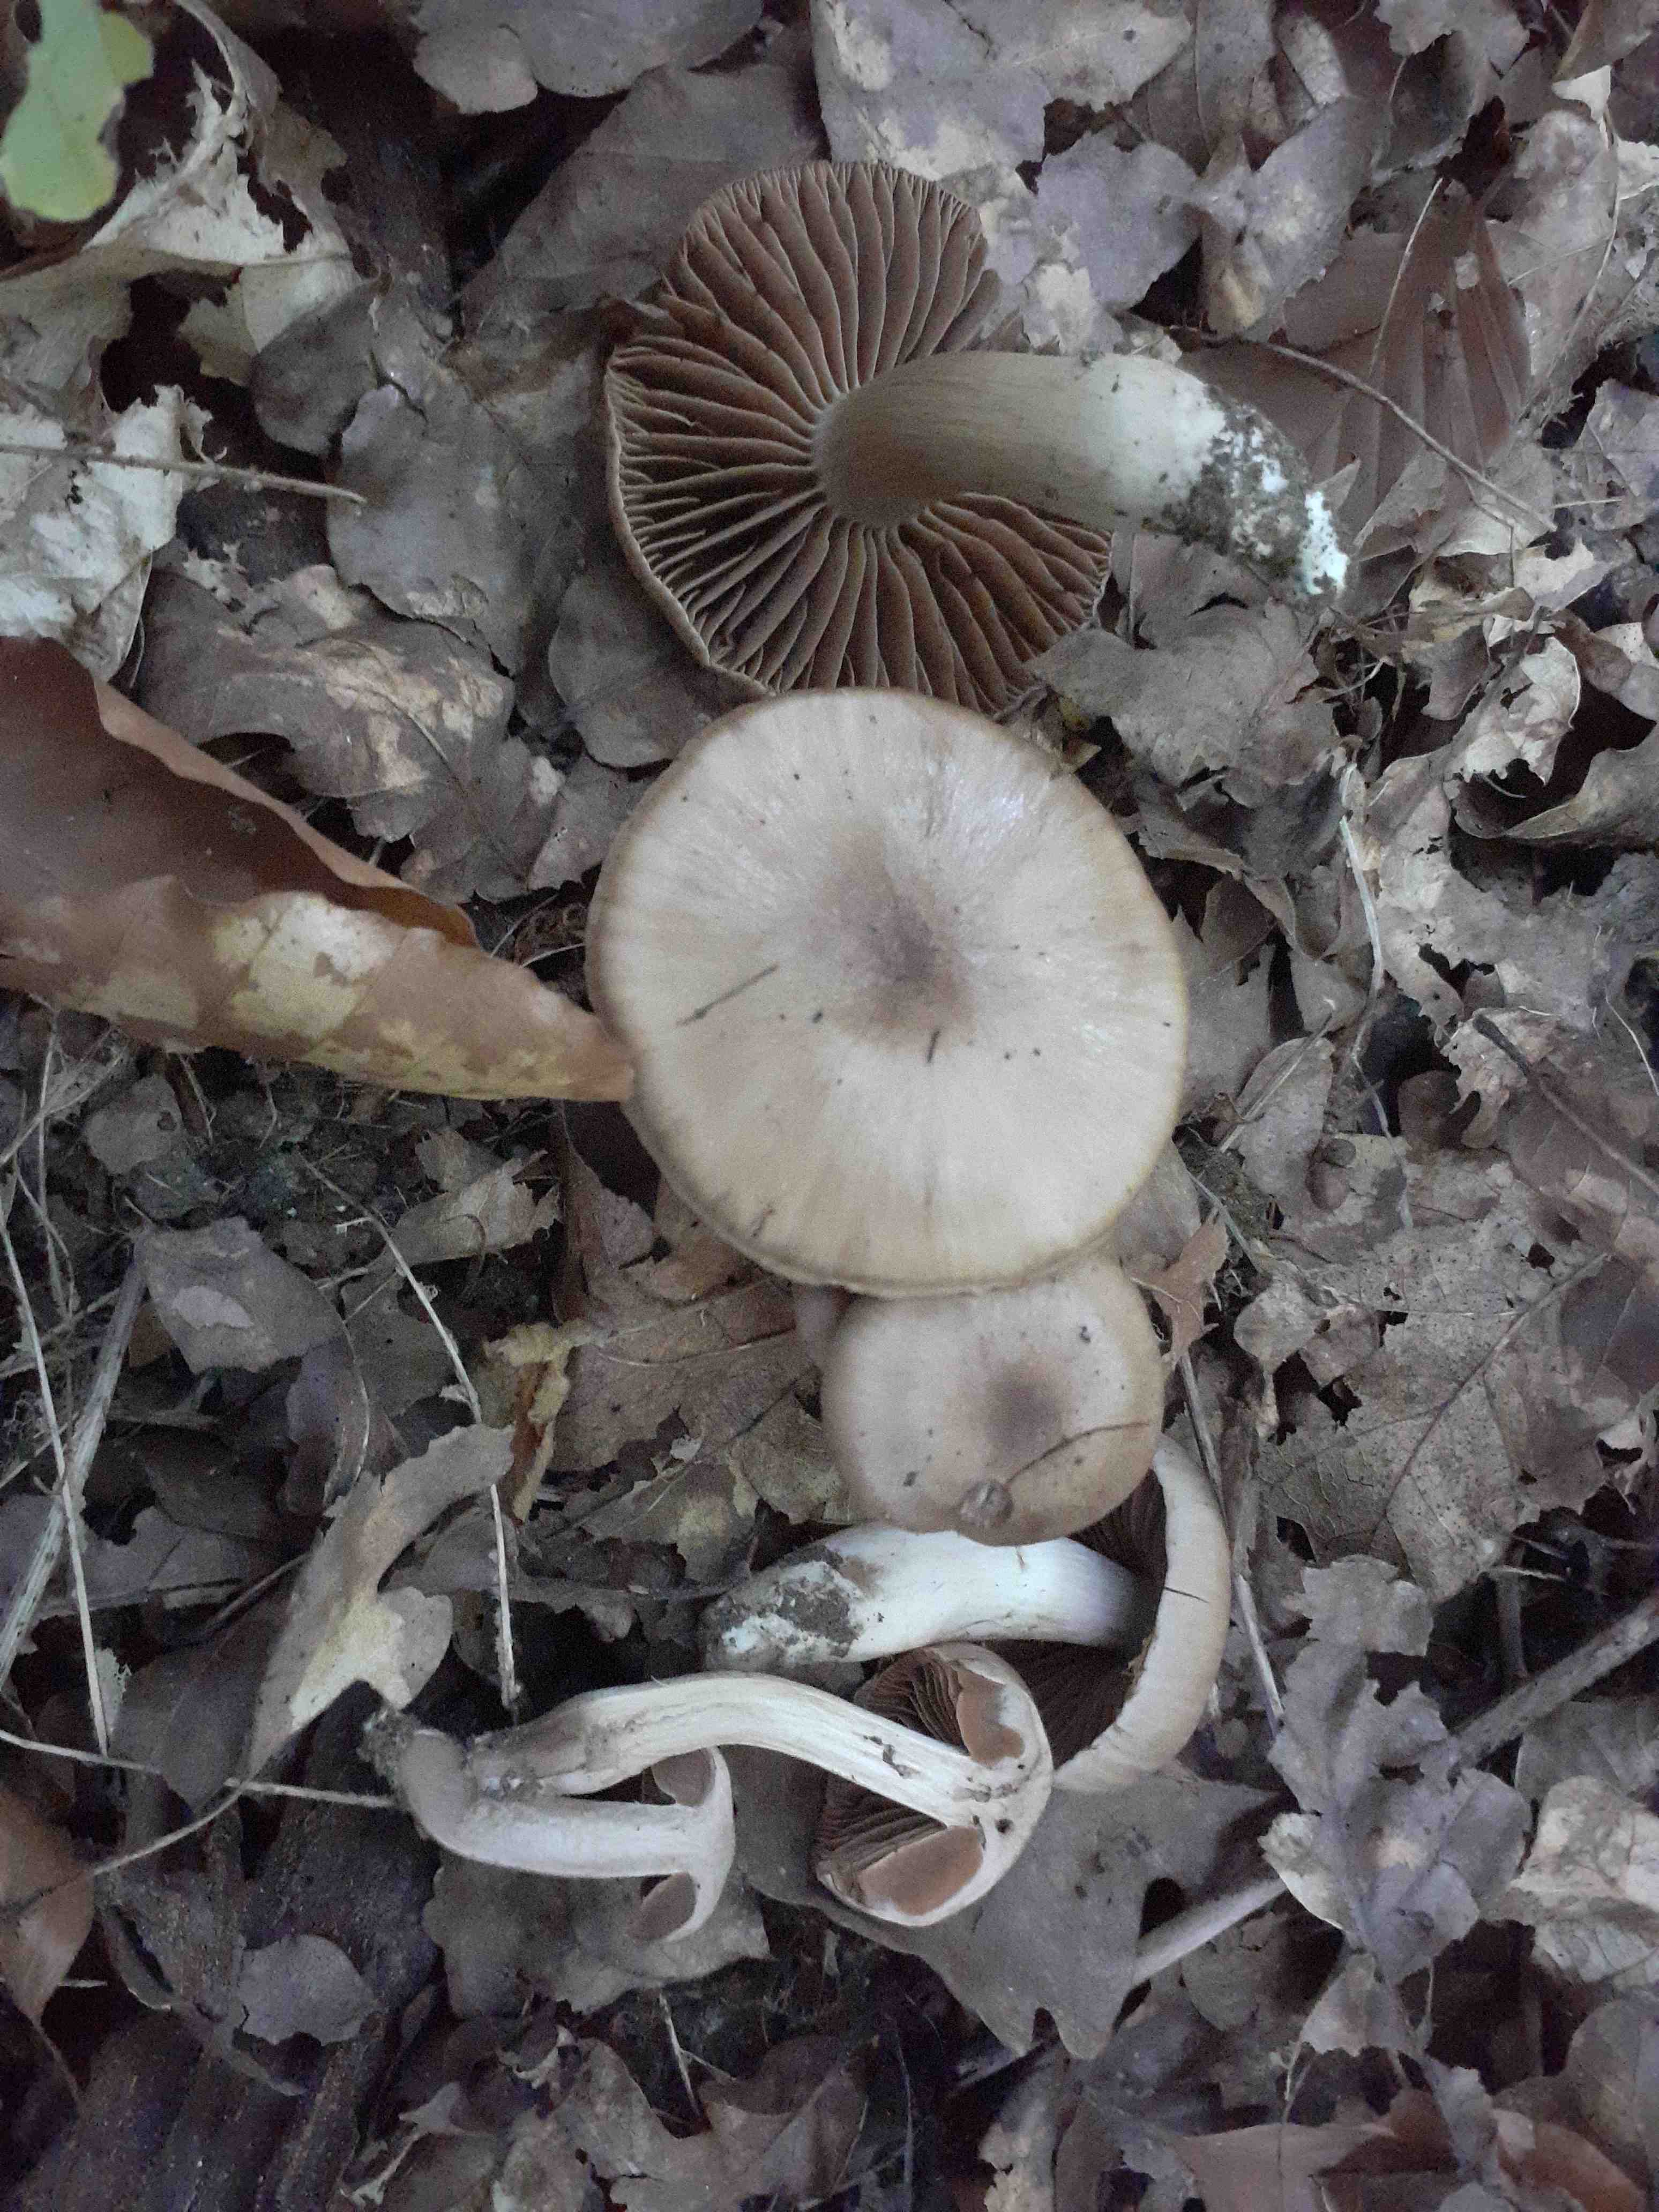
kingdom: Fungi
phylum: Basidiomycota
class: Agaricomycetes
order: Agaricales
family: Cortinariaceae
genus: Cortinarius
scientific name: Cortinarius
